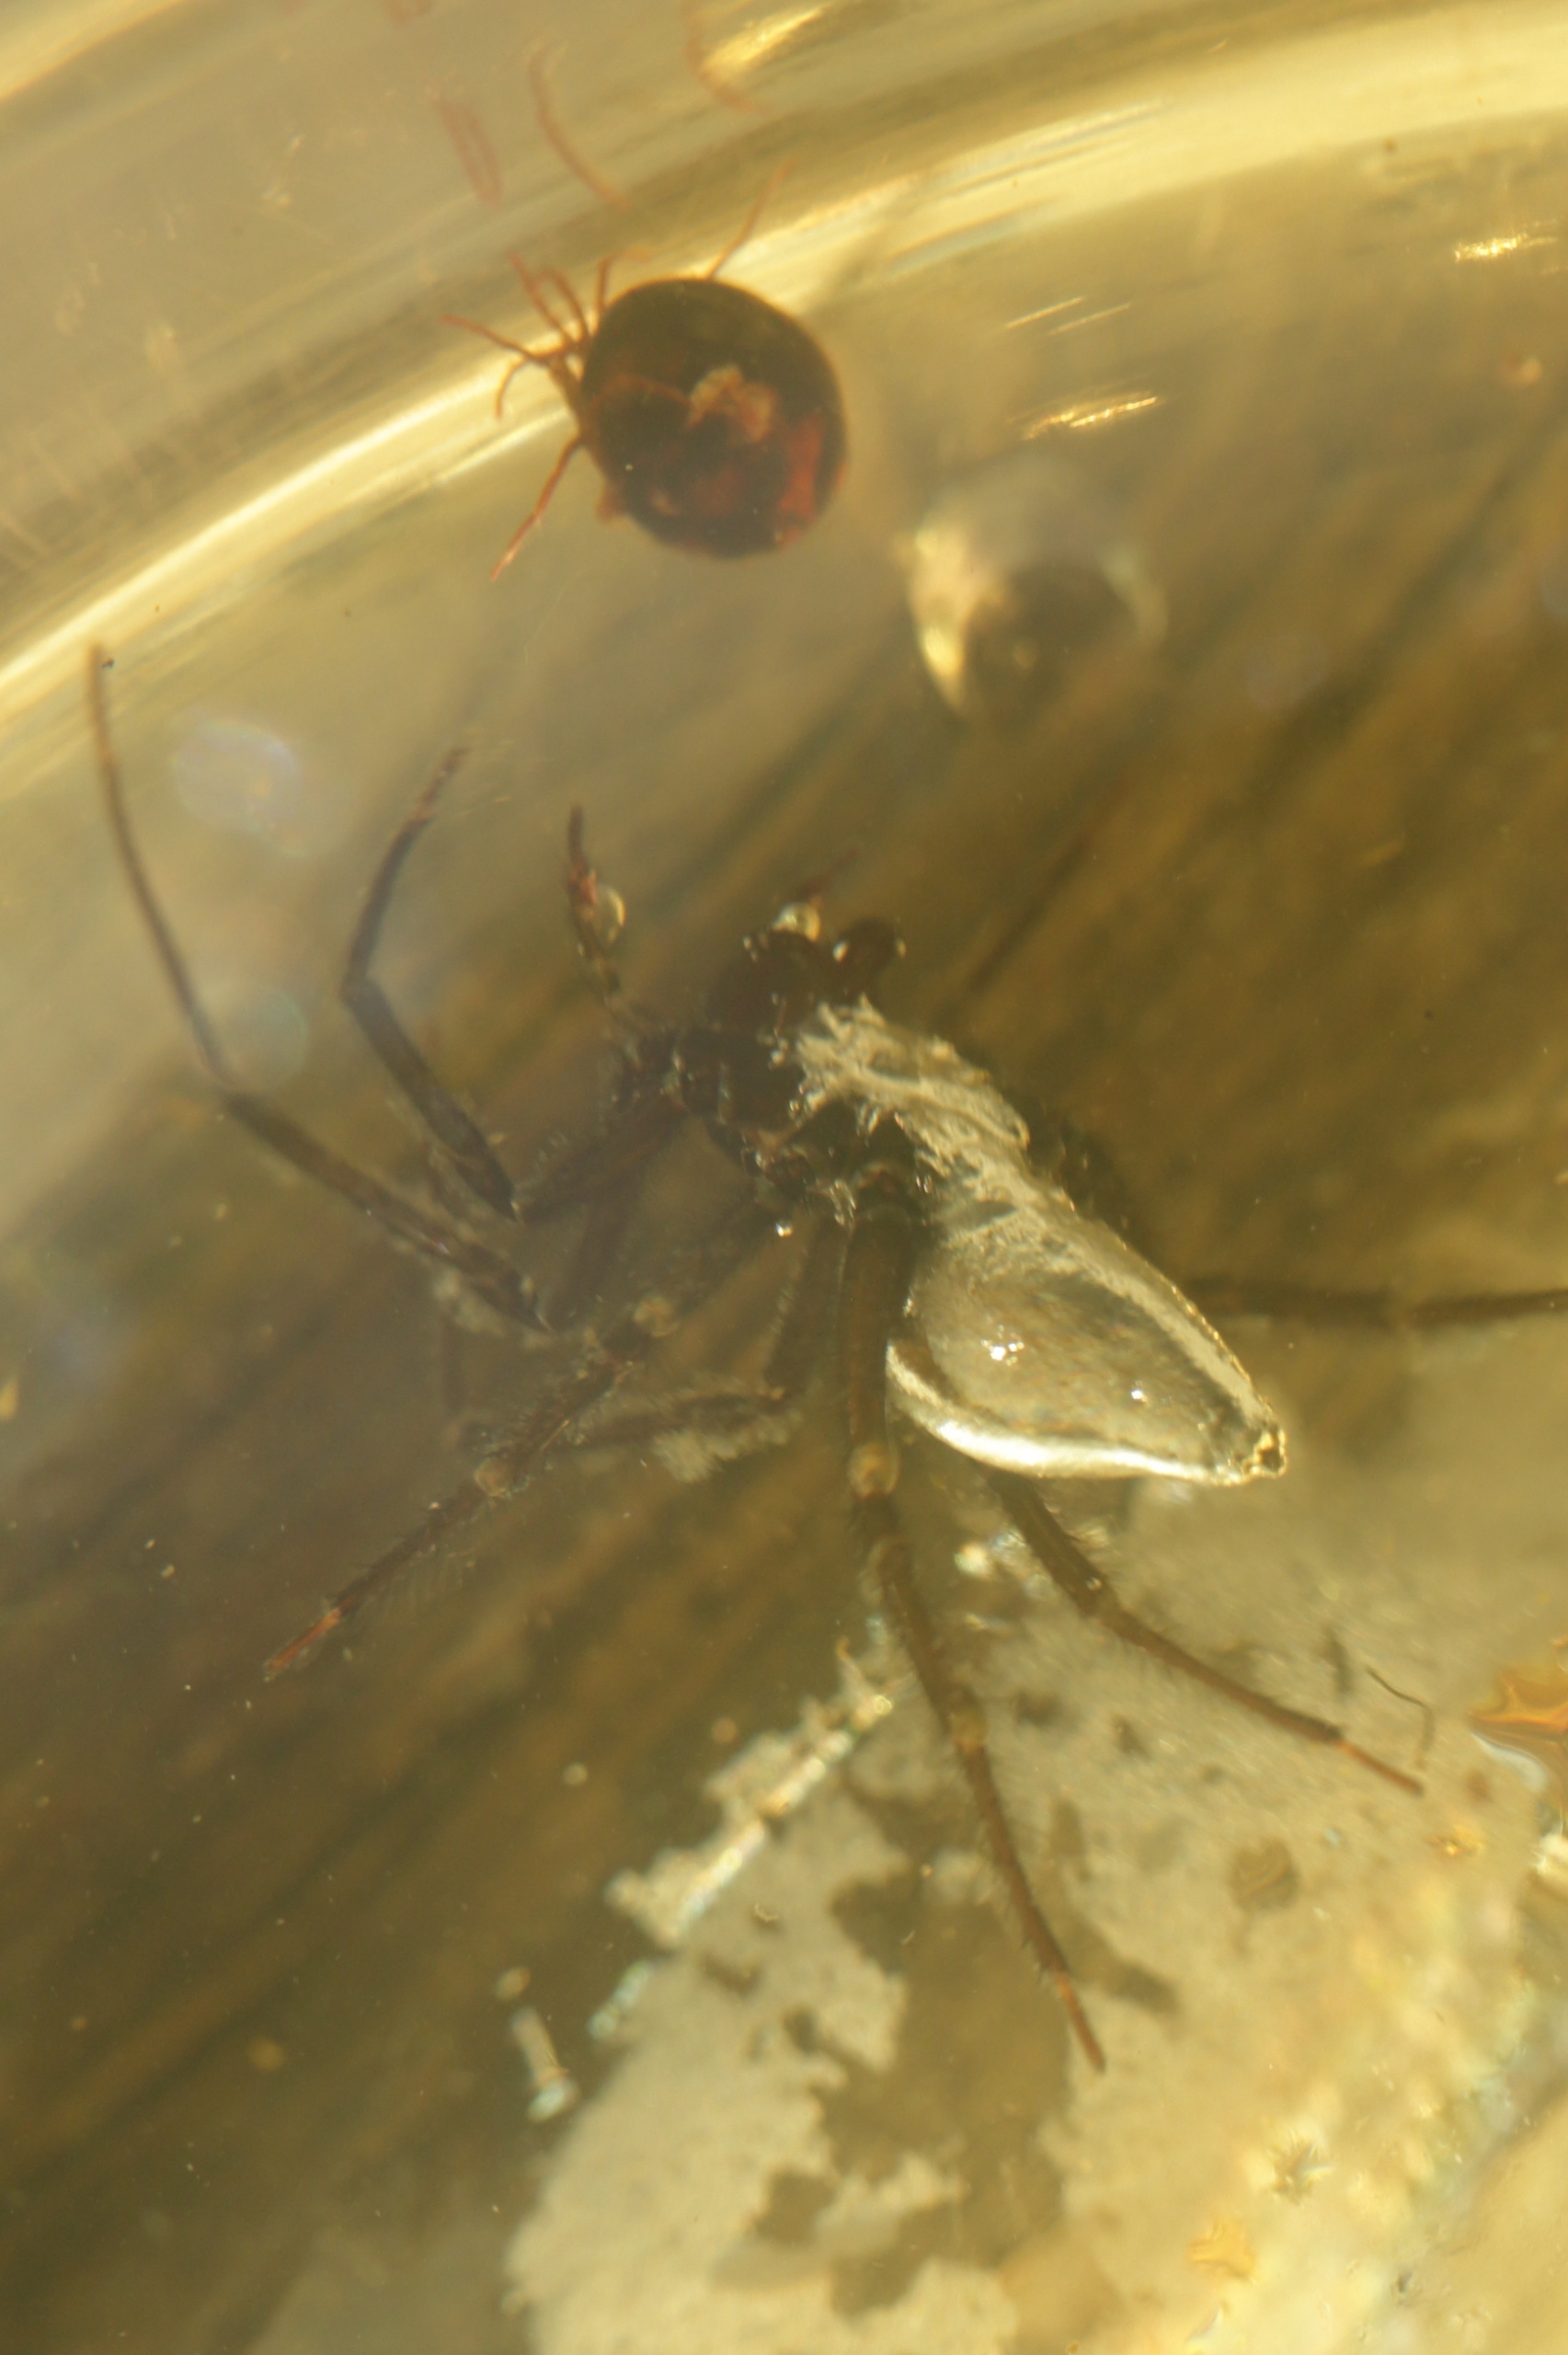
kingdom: Animalia
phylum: Arthropoda
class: Arachnida
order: Araneae
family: Dictynidae
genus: Argyroneta
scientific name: Argyroneta aquatica
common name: Vandedderkop
